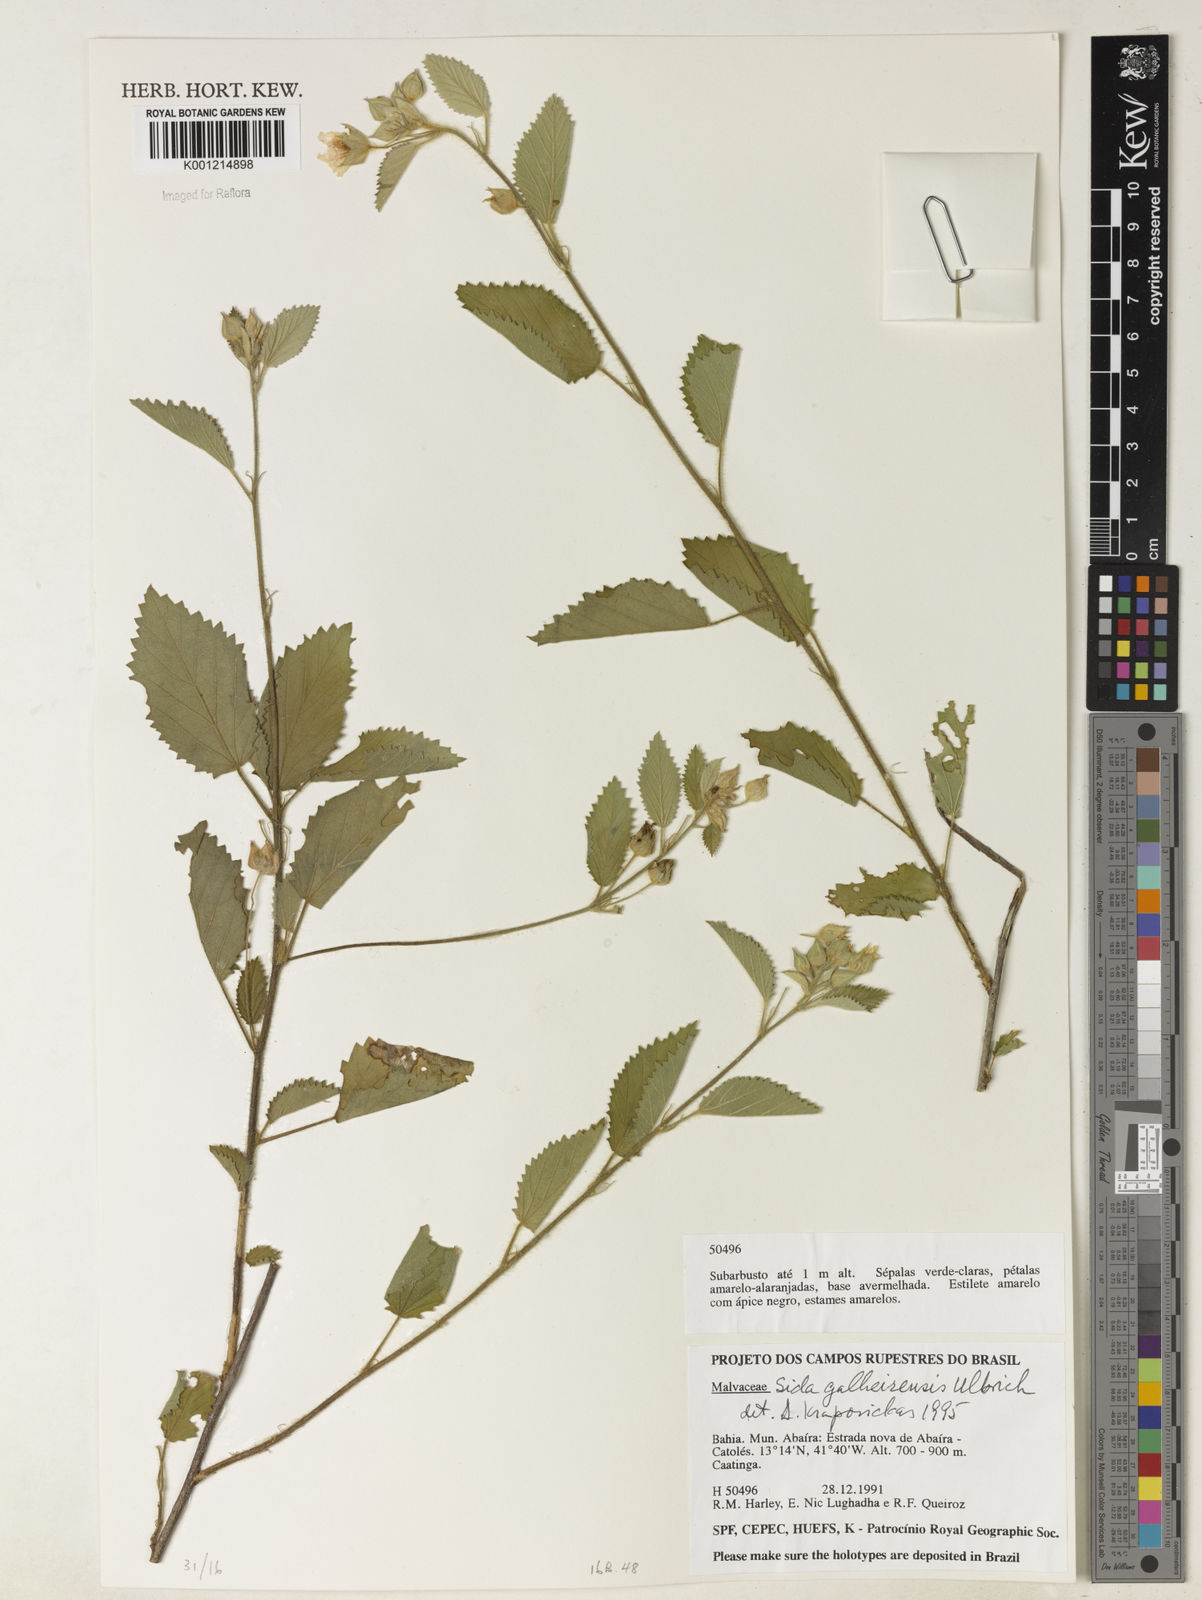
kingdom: Plantae
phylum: Tracheophyta
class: Magnoliopsida
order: Malvales
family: Malvaceae
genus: Sida
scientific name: Sida galheirensis
